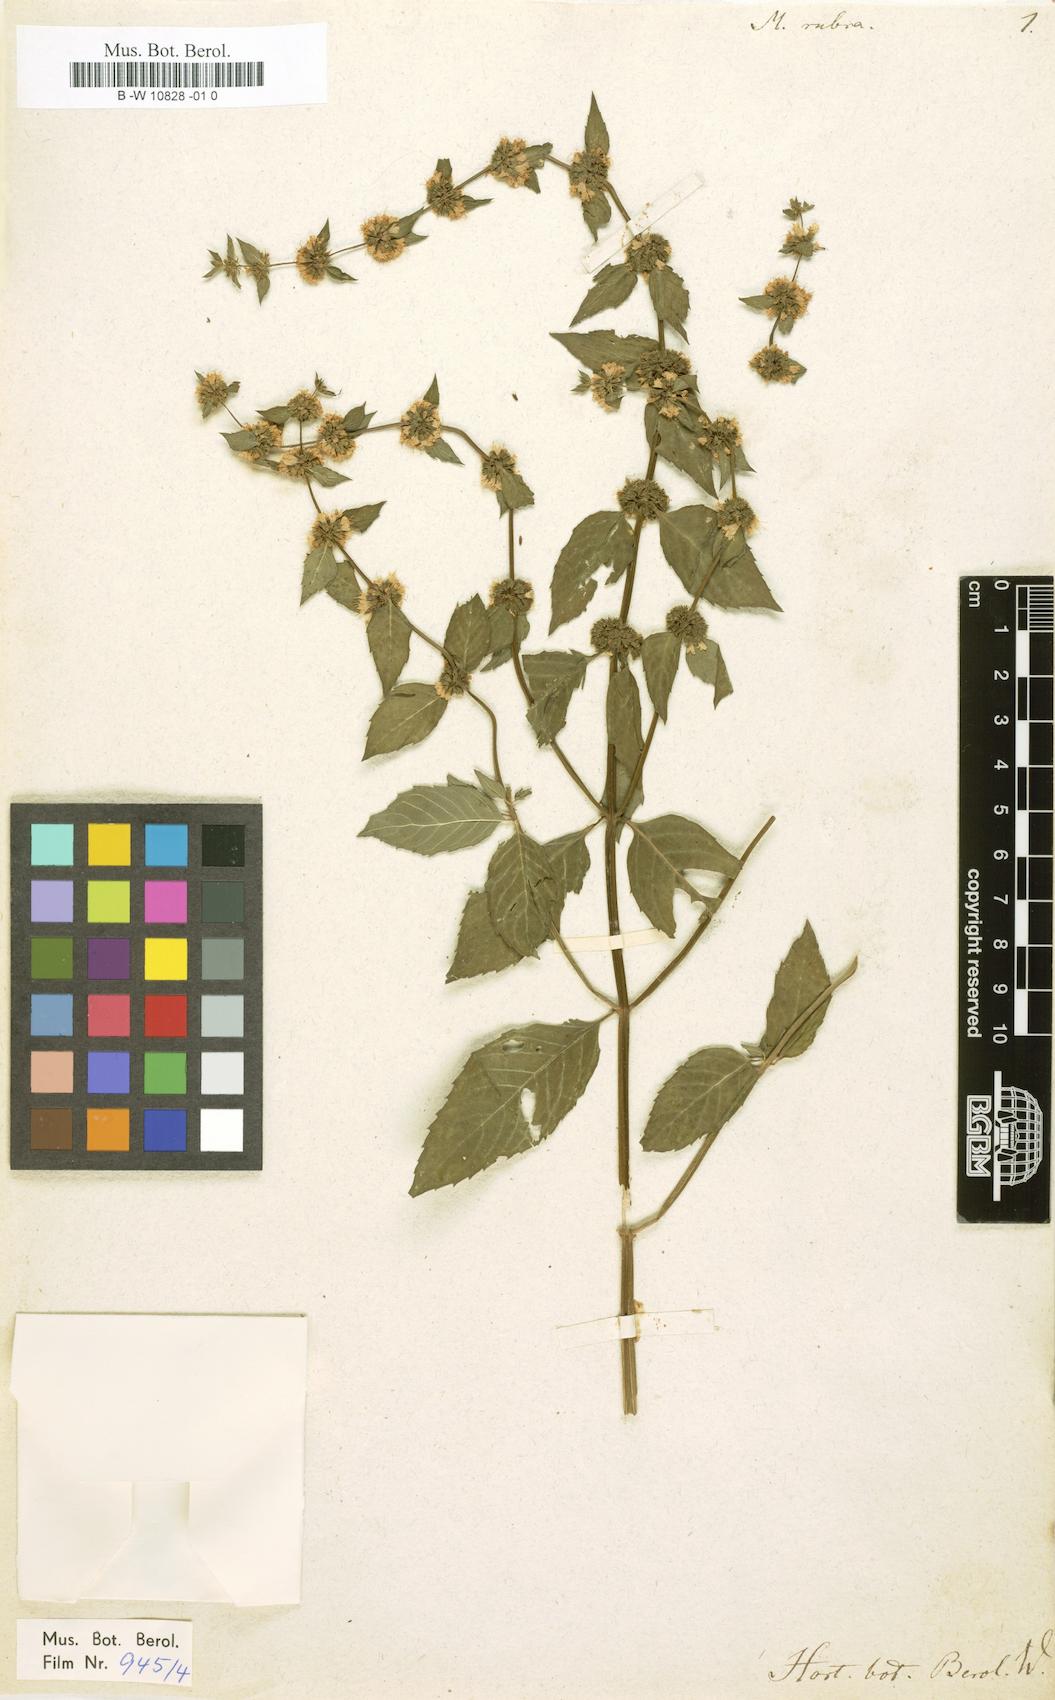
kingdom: Plantae
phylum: Tracheophyta
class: Magnoliopsida
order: Lamiales
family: Lamiaceae
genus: Mentha
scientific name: Mentha rubra
